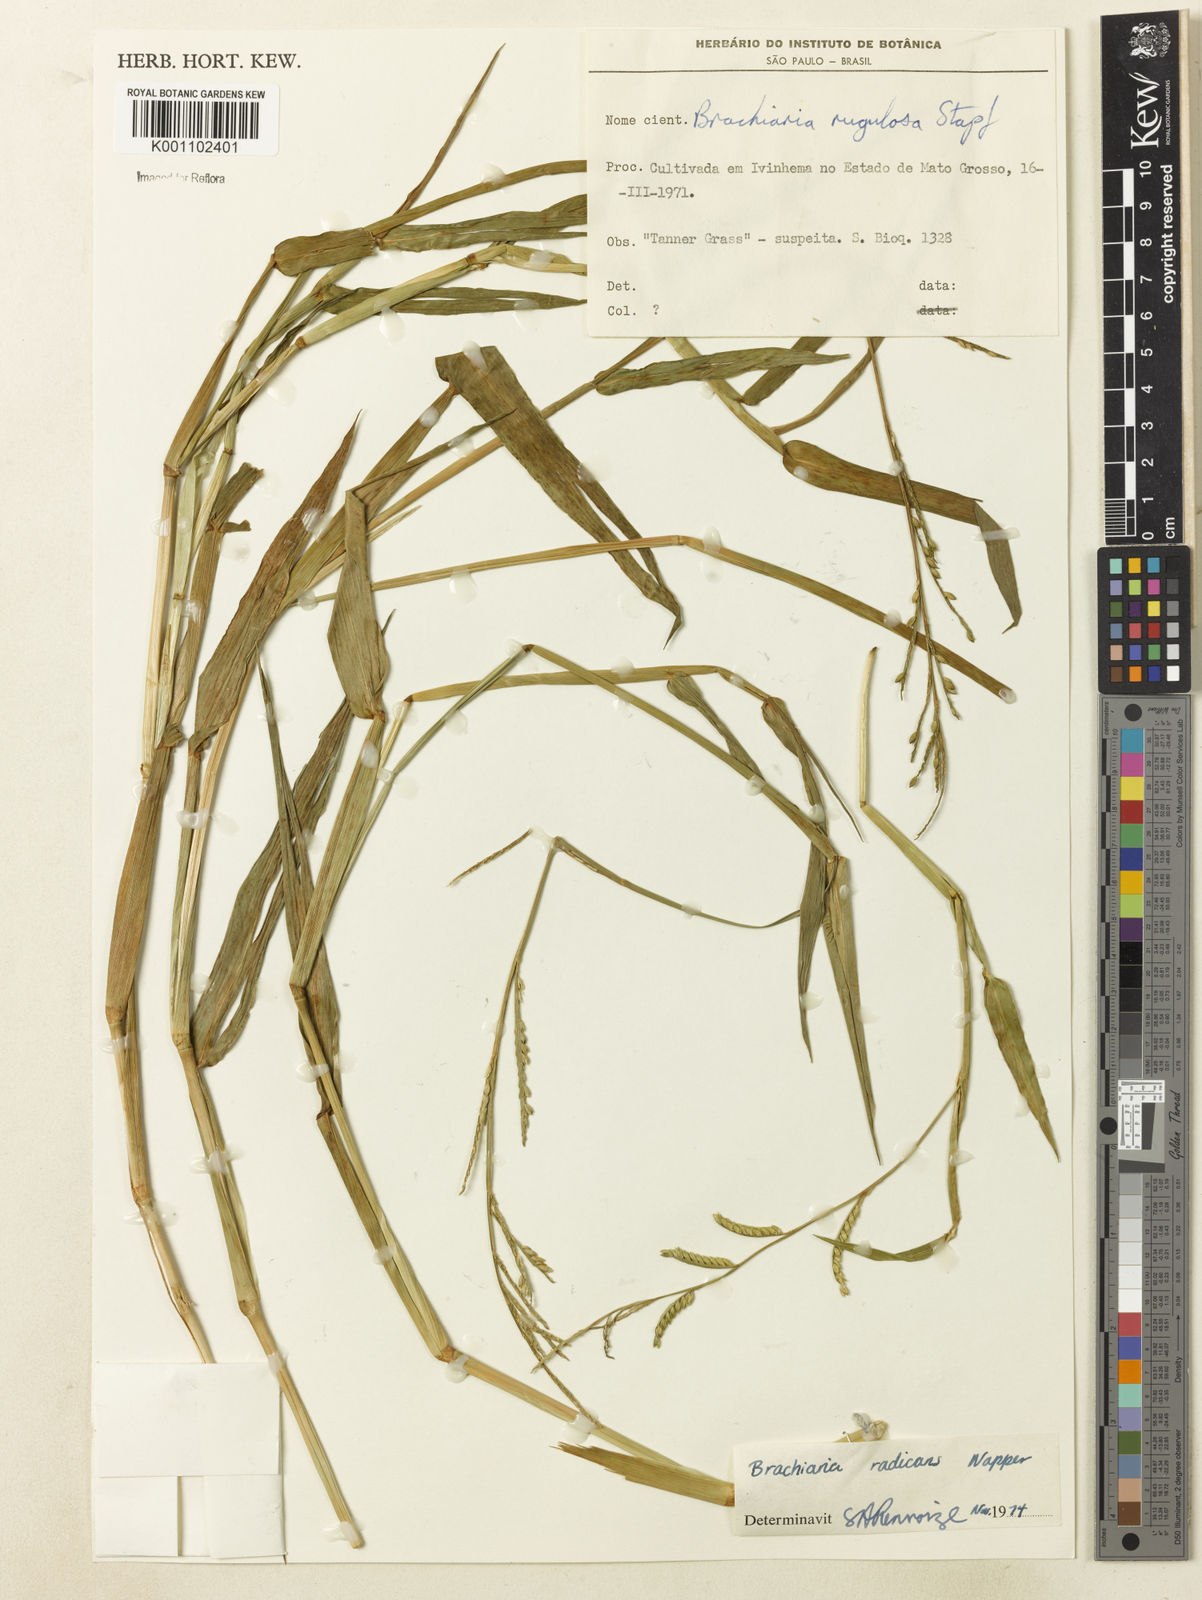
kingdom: Plantae
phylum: Tracheophyta
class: Liliopsida
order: Poales
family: Poaceae
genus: Urochloa
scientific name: Urochloa arrecta
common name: African signalgrass
